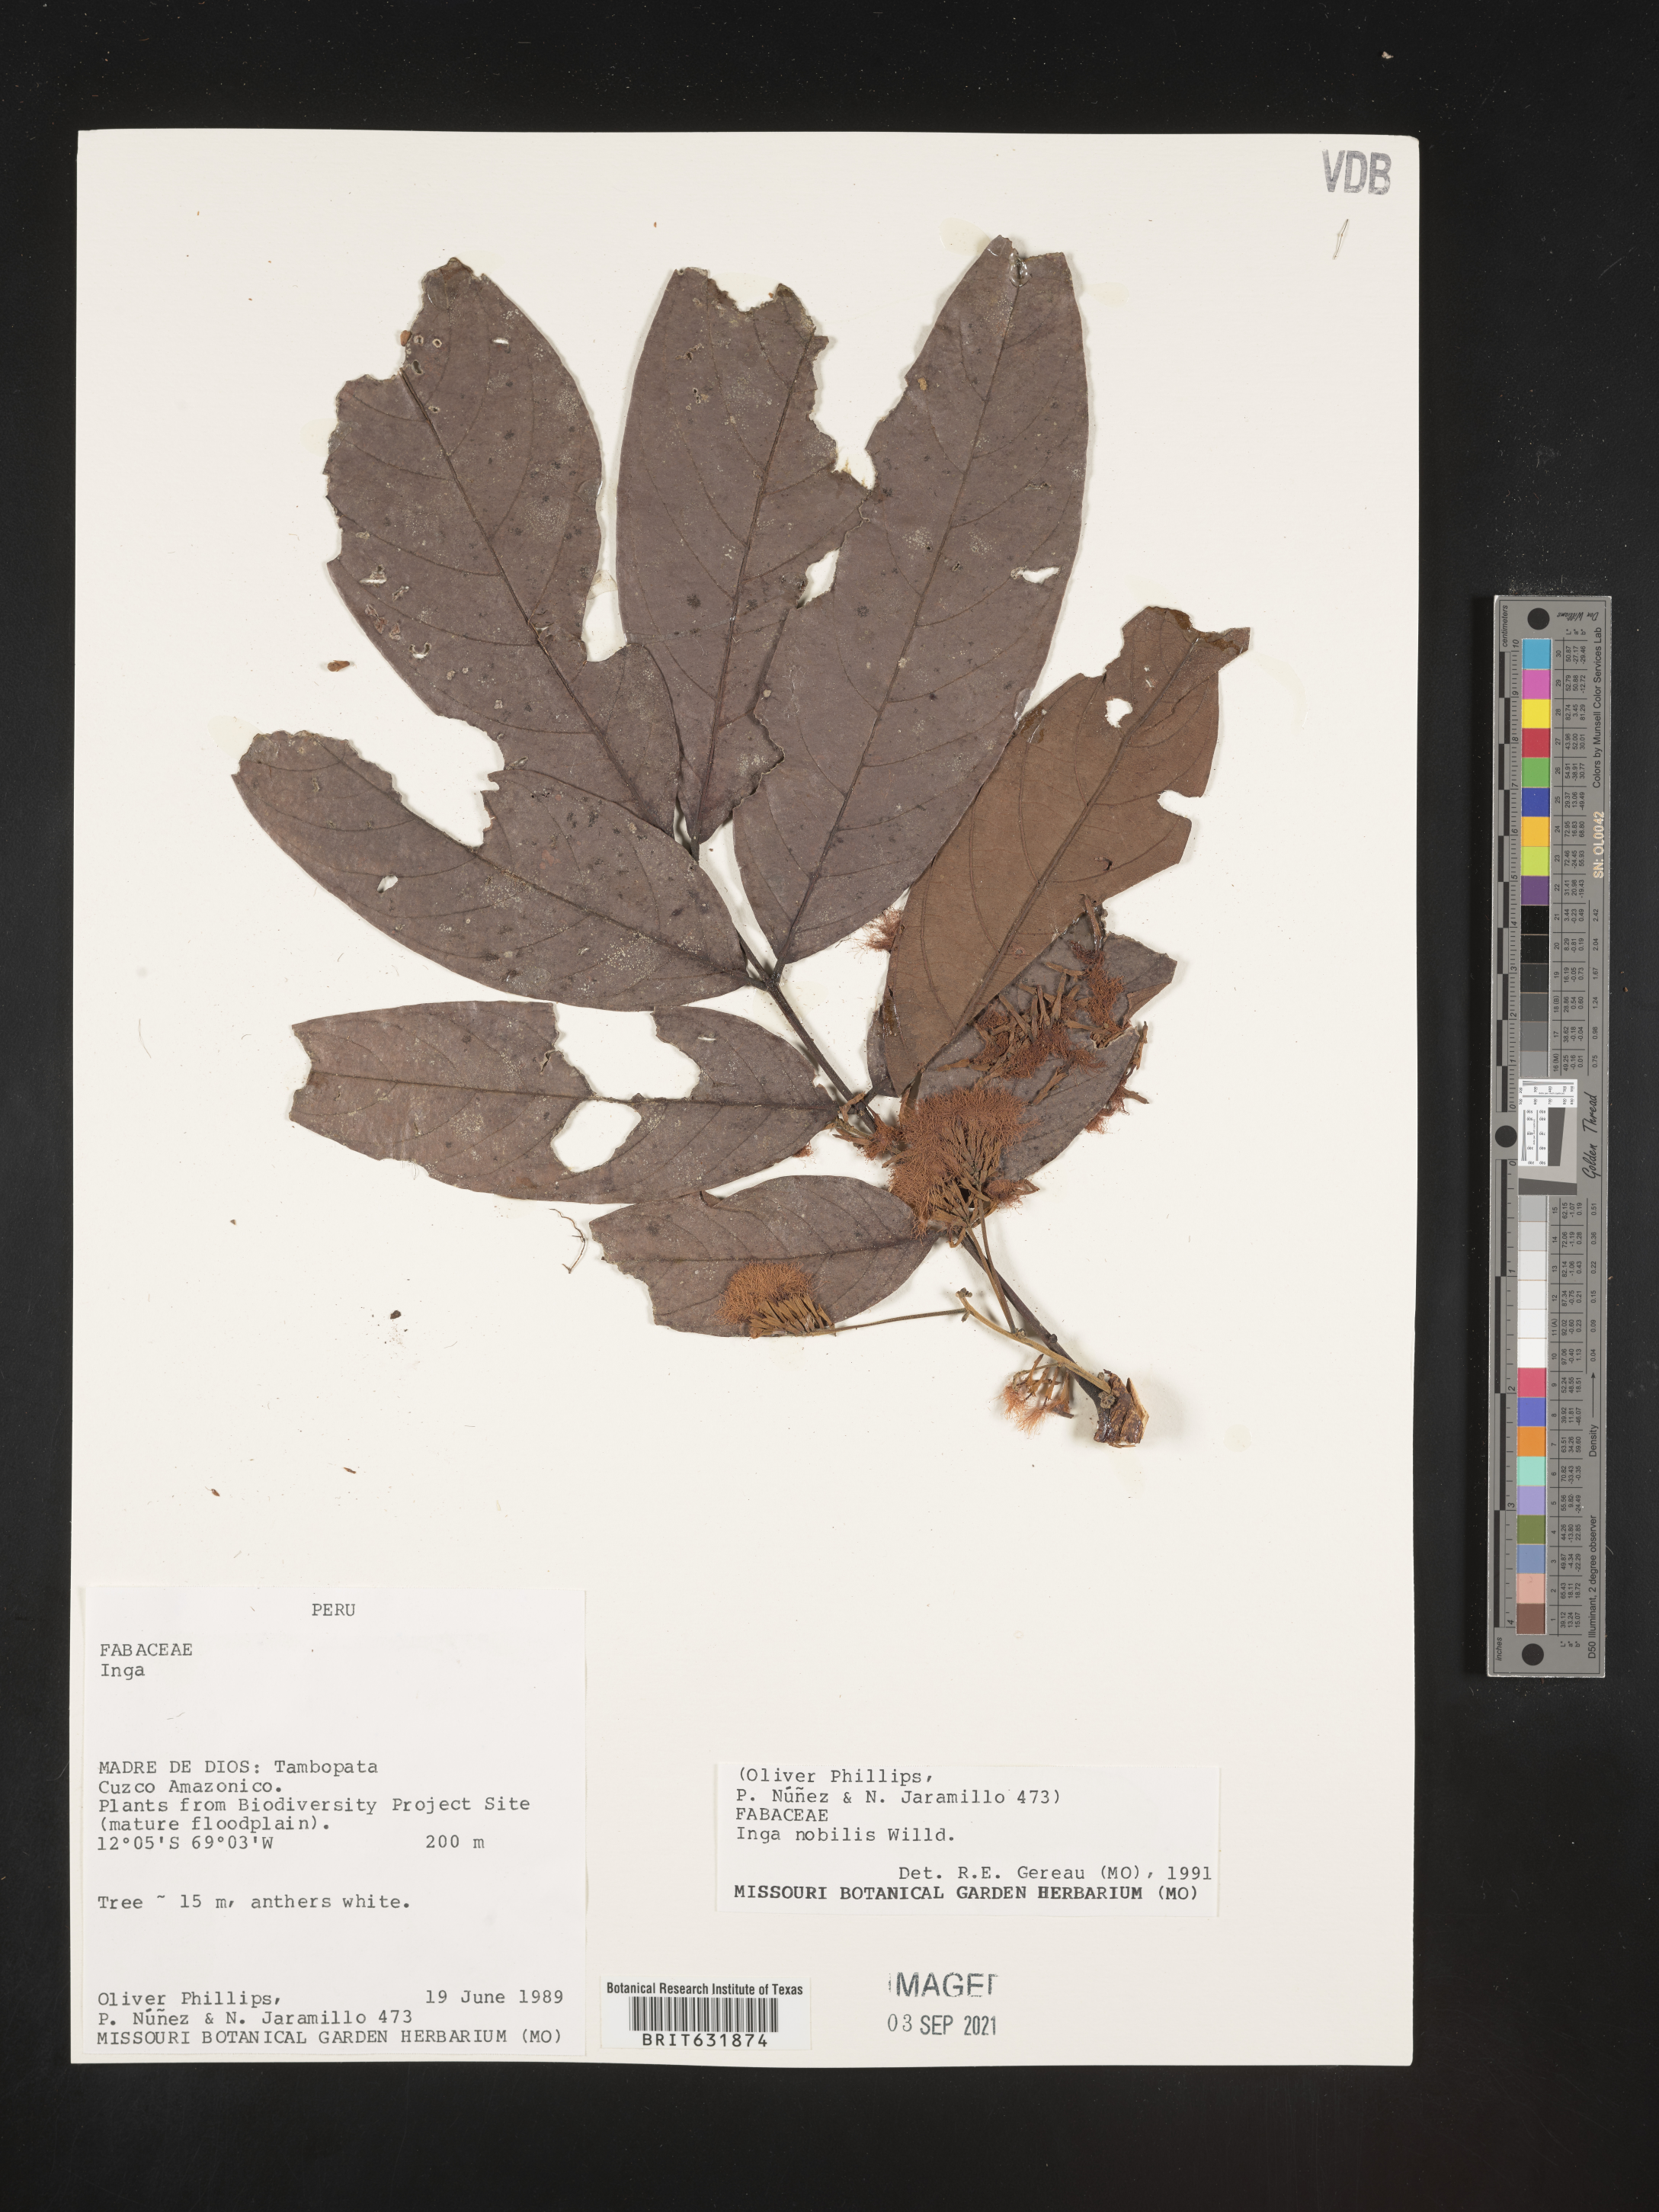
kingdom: Plantae
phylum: Tracheophyta
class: Magnoliopsida
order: Fabales
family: Fabaceae
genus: Inga
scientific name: Inga
